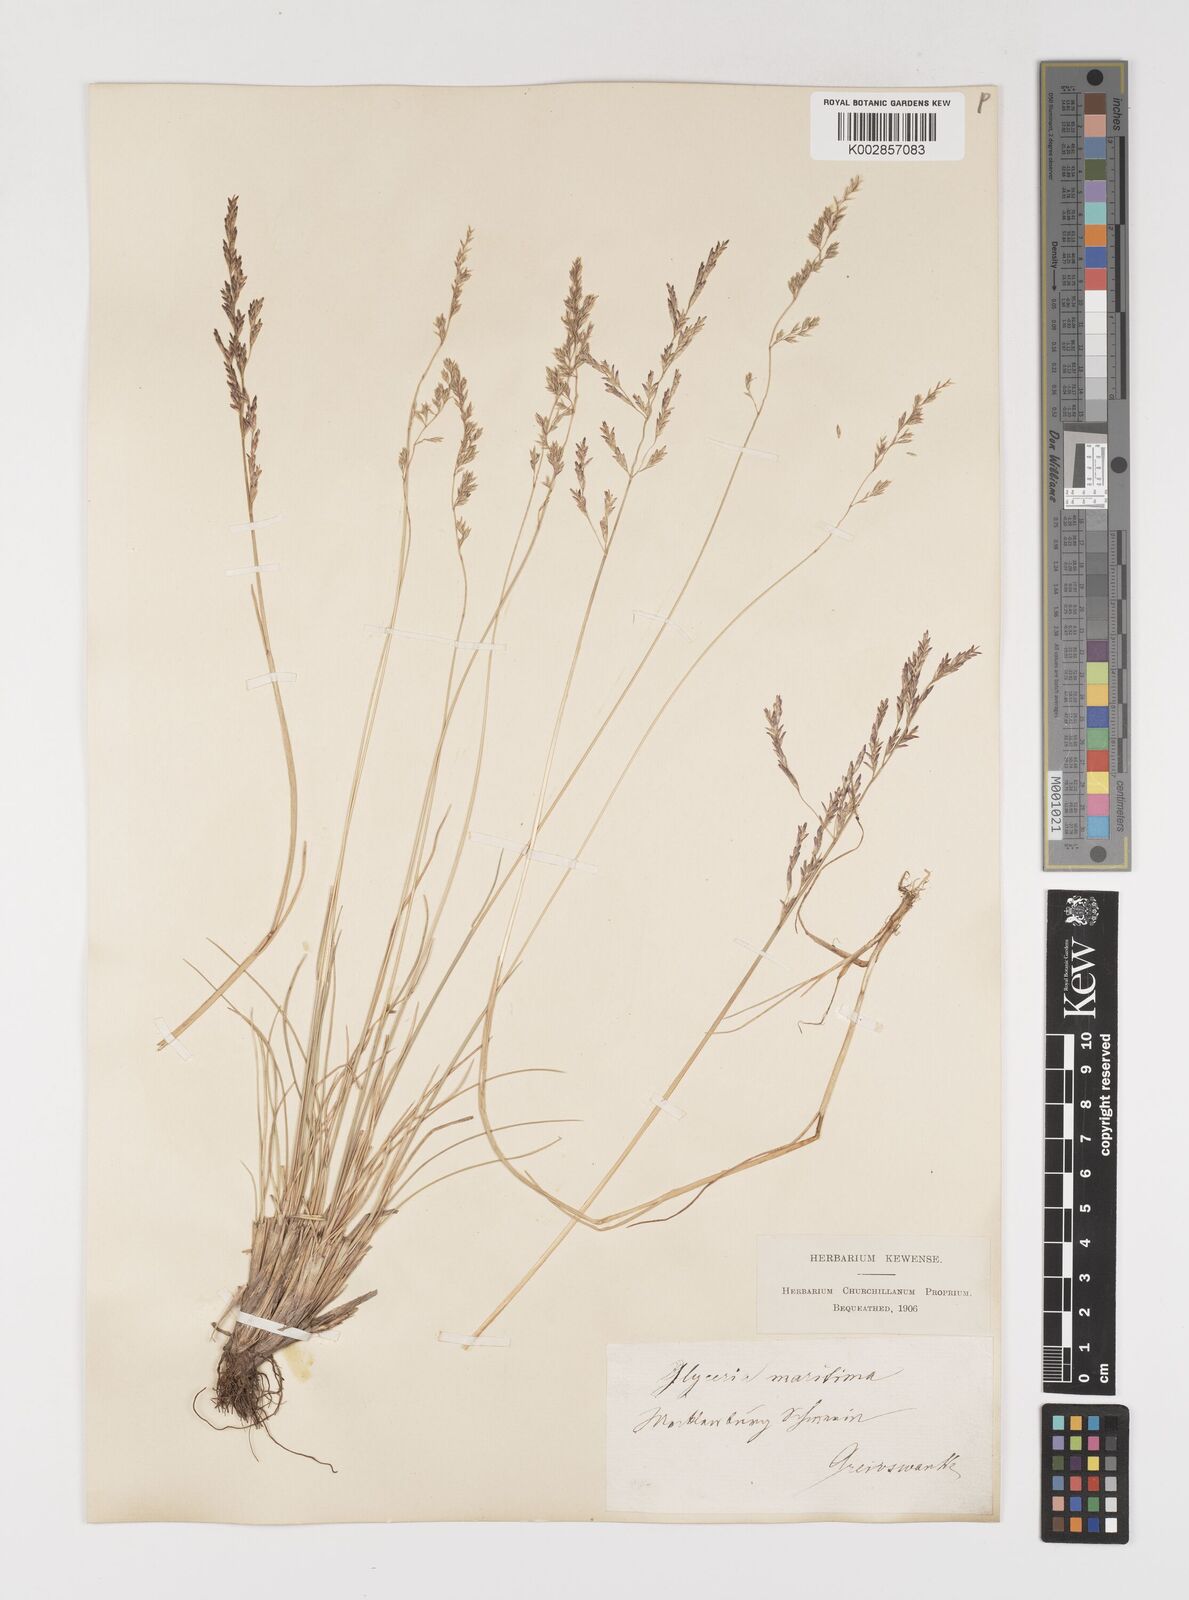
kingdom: Plantae
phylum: Tracheophyta
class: Liliopsida
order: Poales
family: Poaceae
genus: Puccinellia
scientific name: Puccinellia maritima
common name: Common saltmarsh grass
